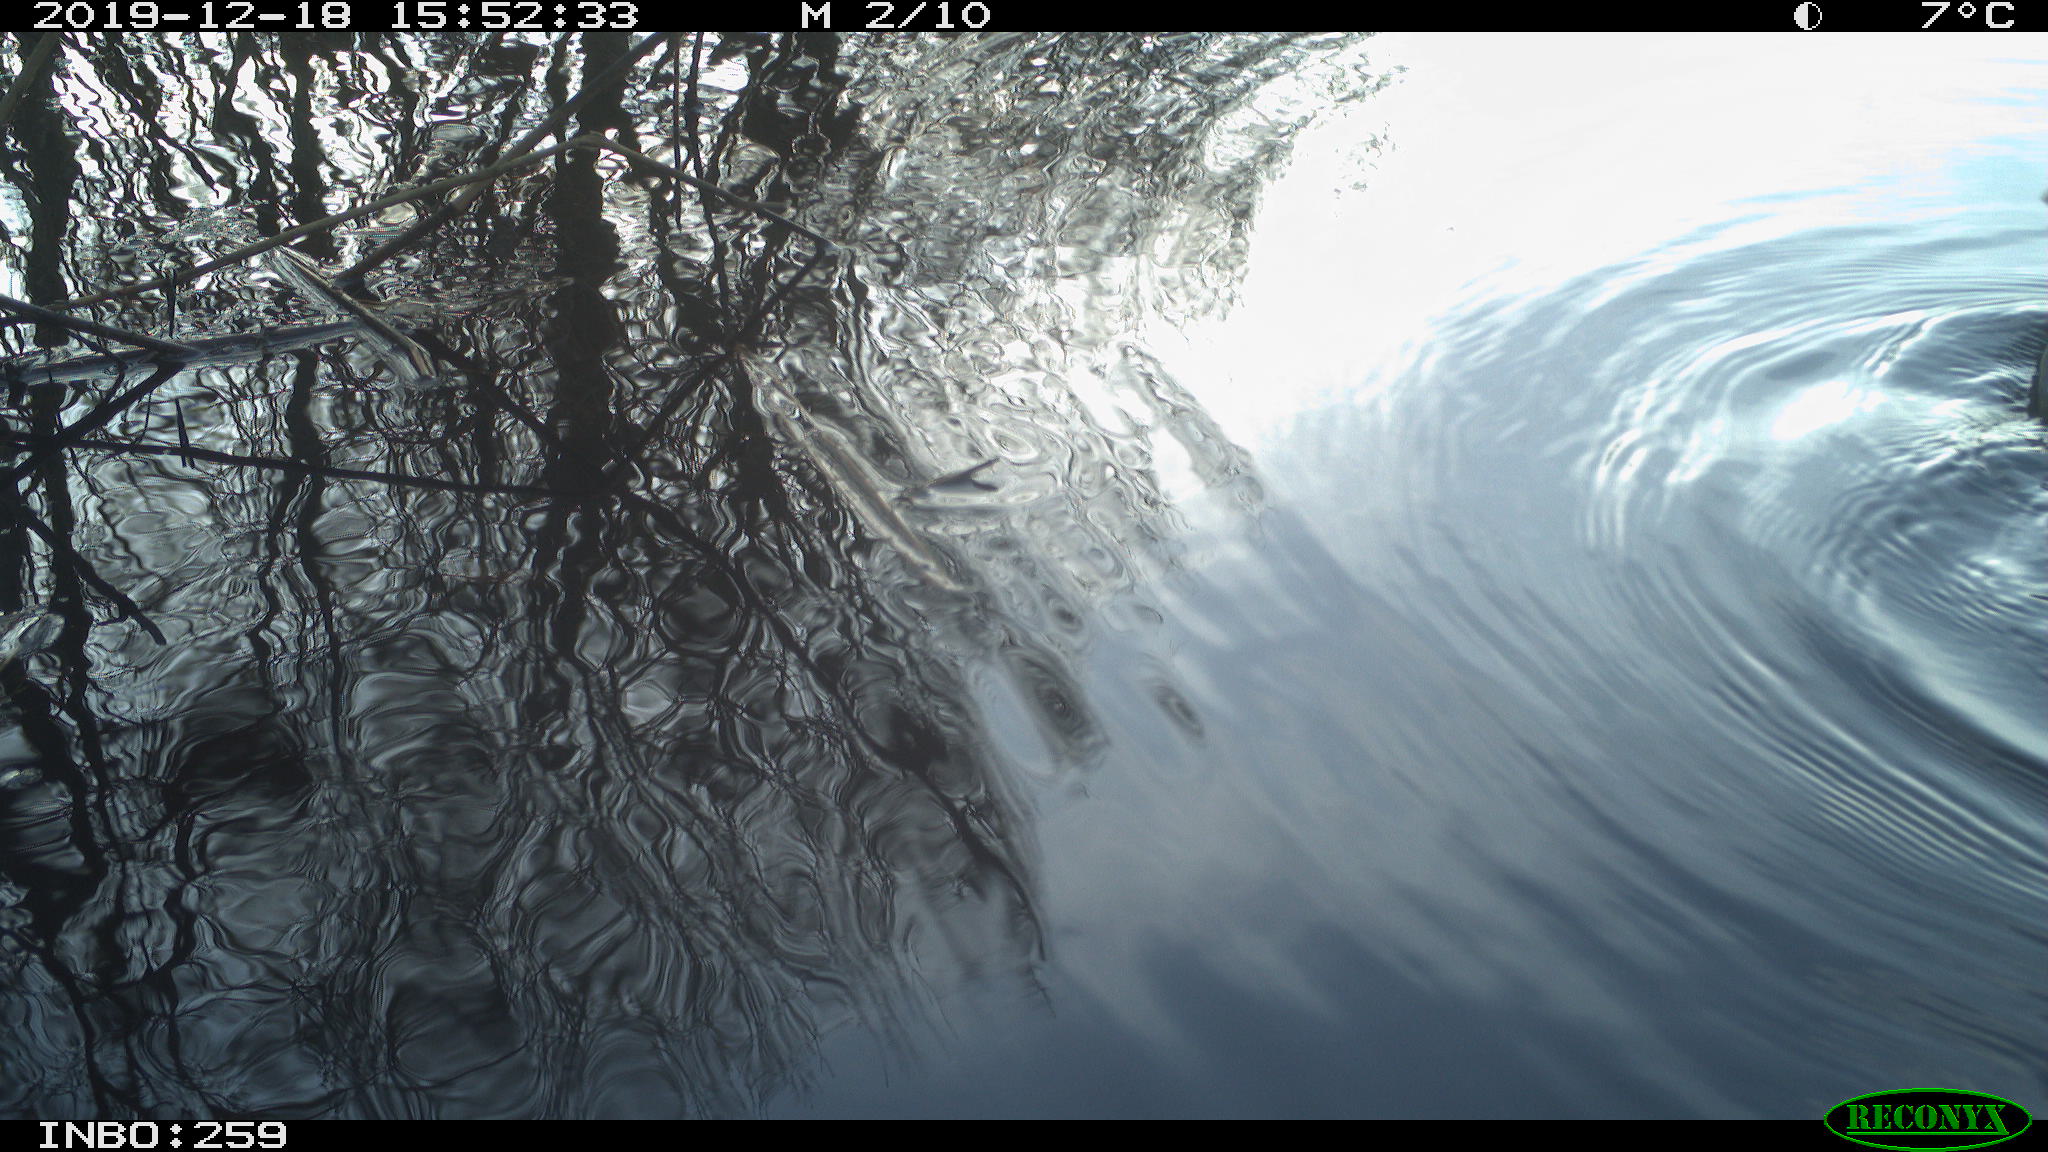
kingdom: Animalia
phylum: Chordata
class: Aves
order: Gruiformes
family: Rallidae
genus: Gallinula
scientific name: Gallinula chloropus
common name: Common moorhen
